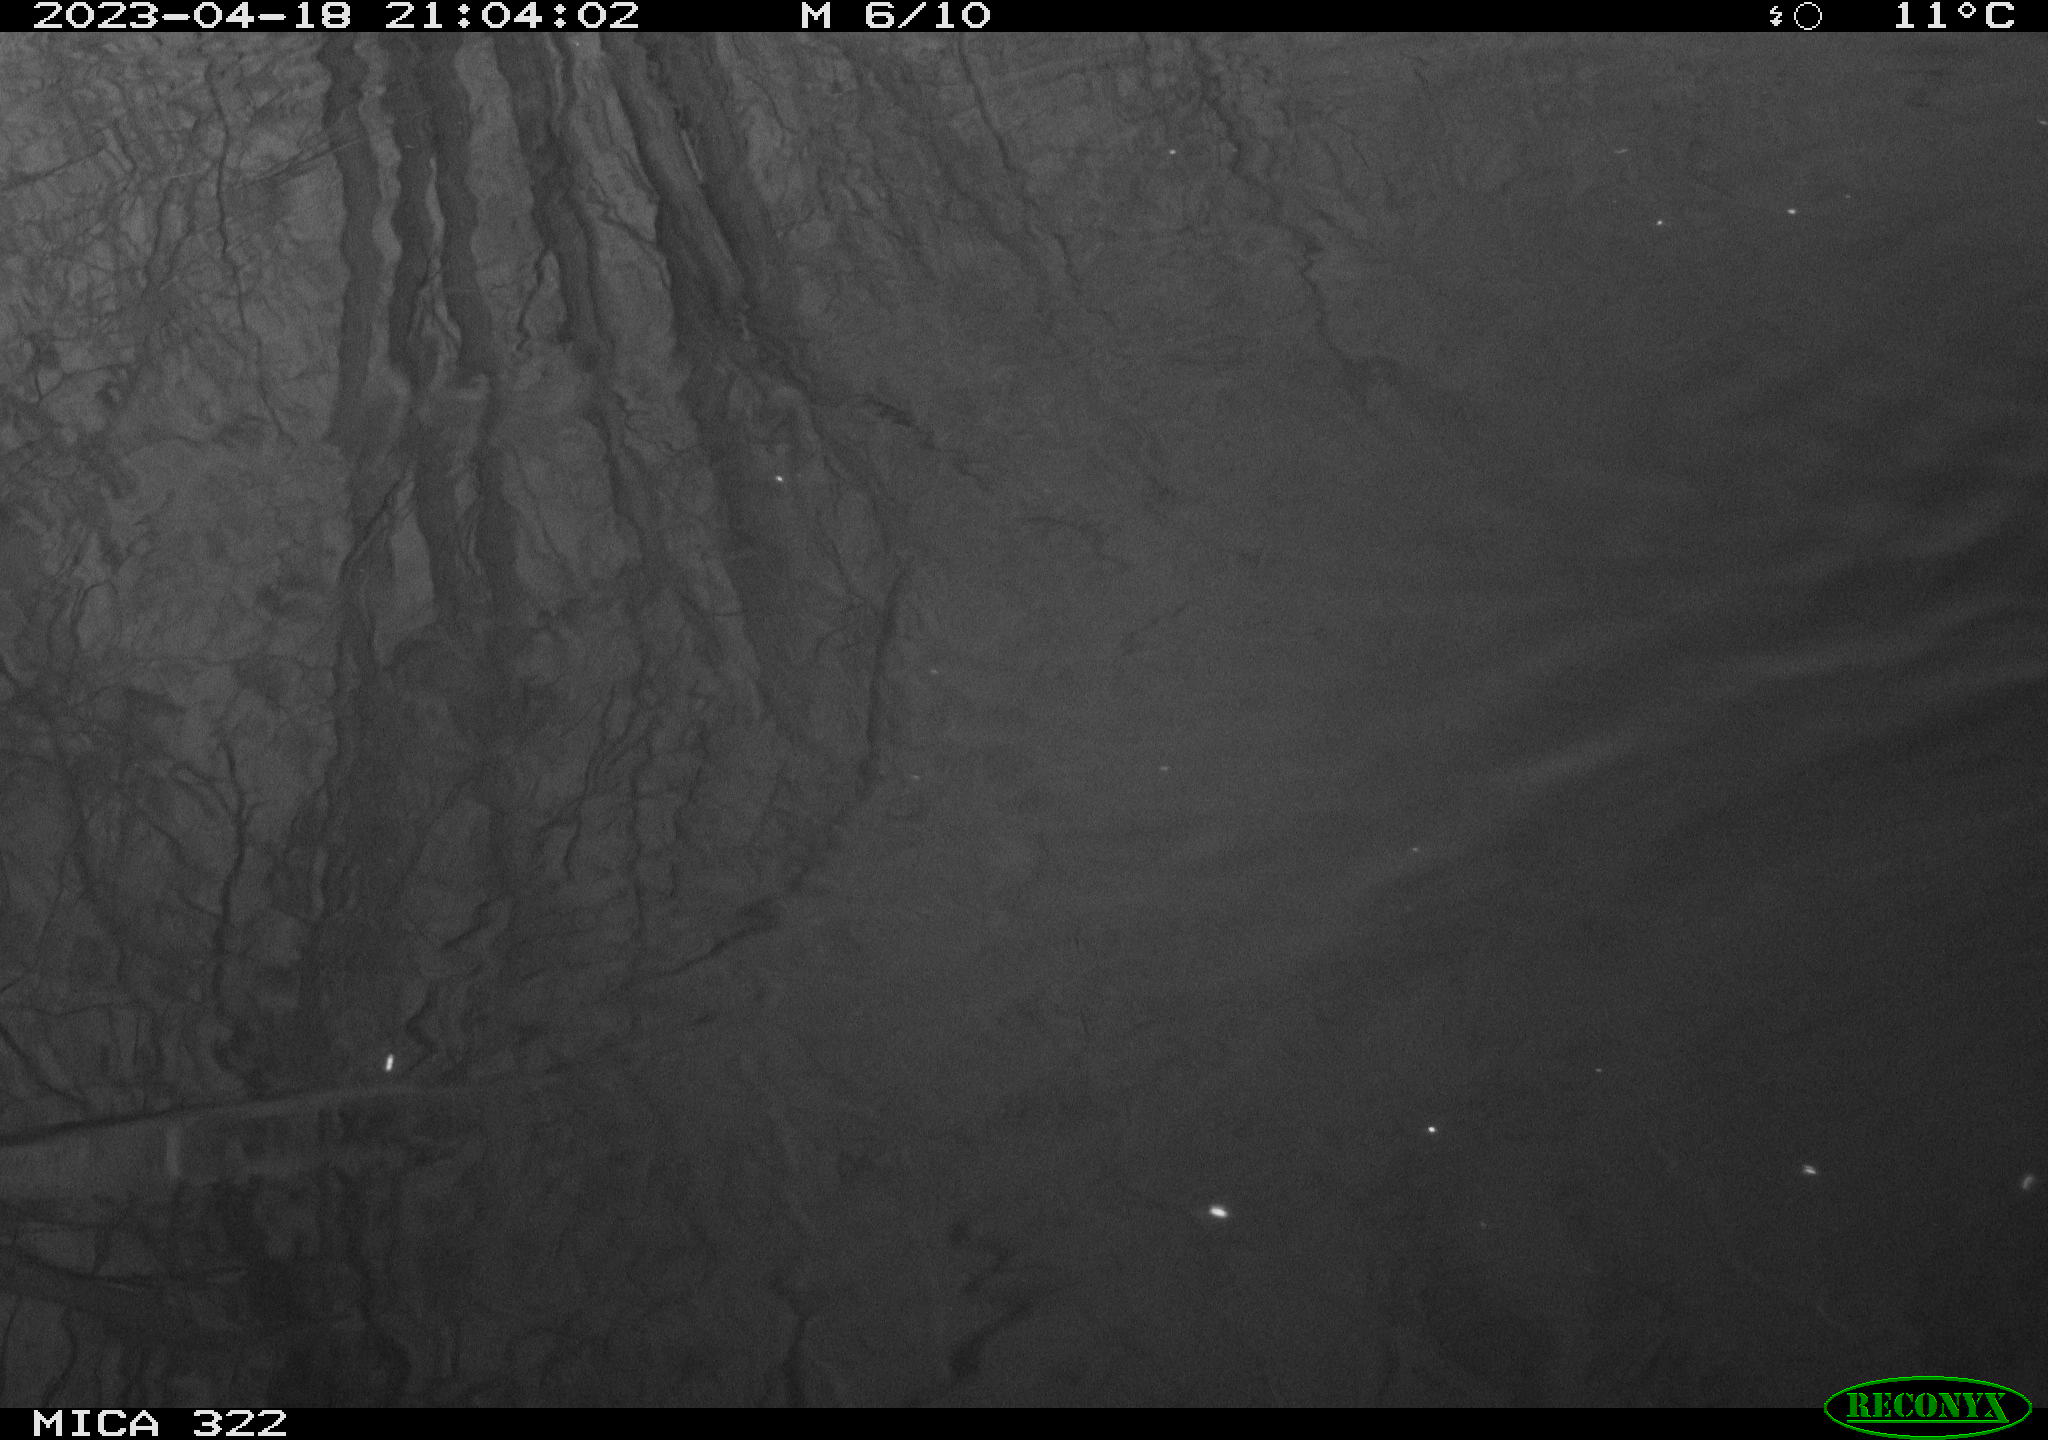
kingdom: Animalia
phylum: Chordata
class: Aves
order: Anseriformes
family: Anatidae
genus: Anas
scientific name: Anas
